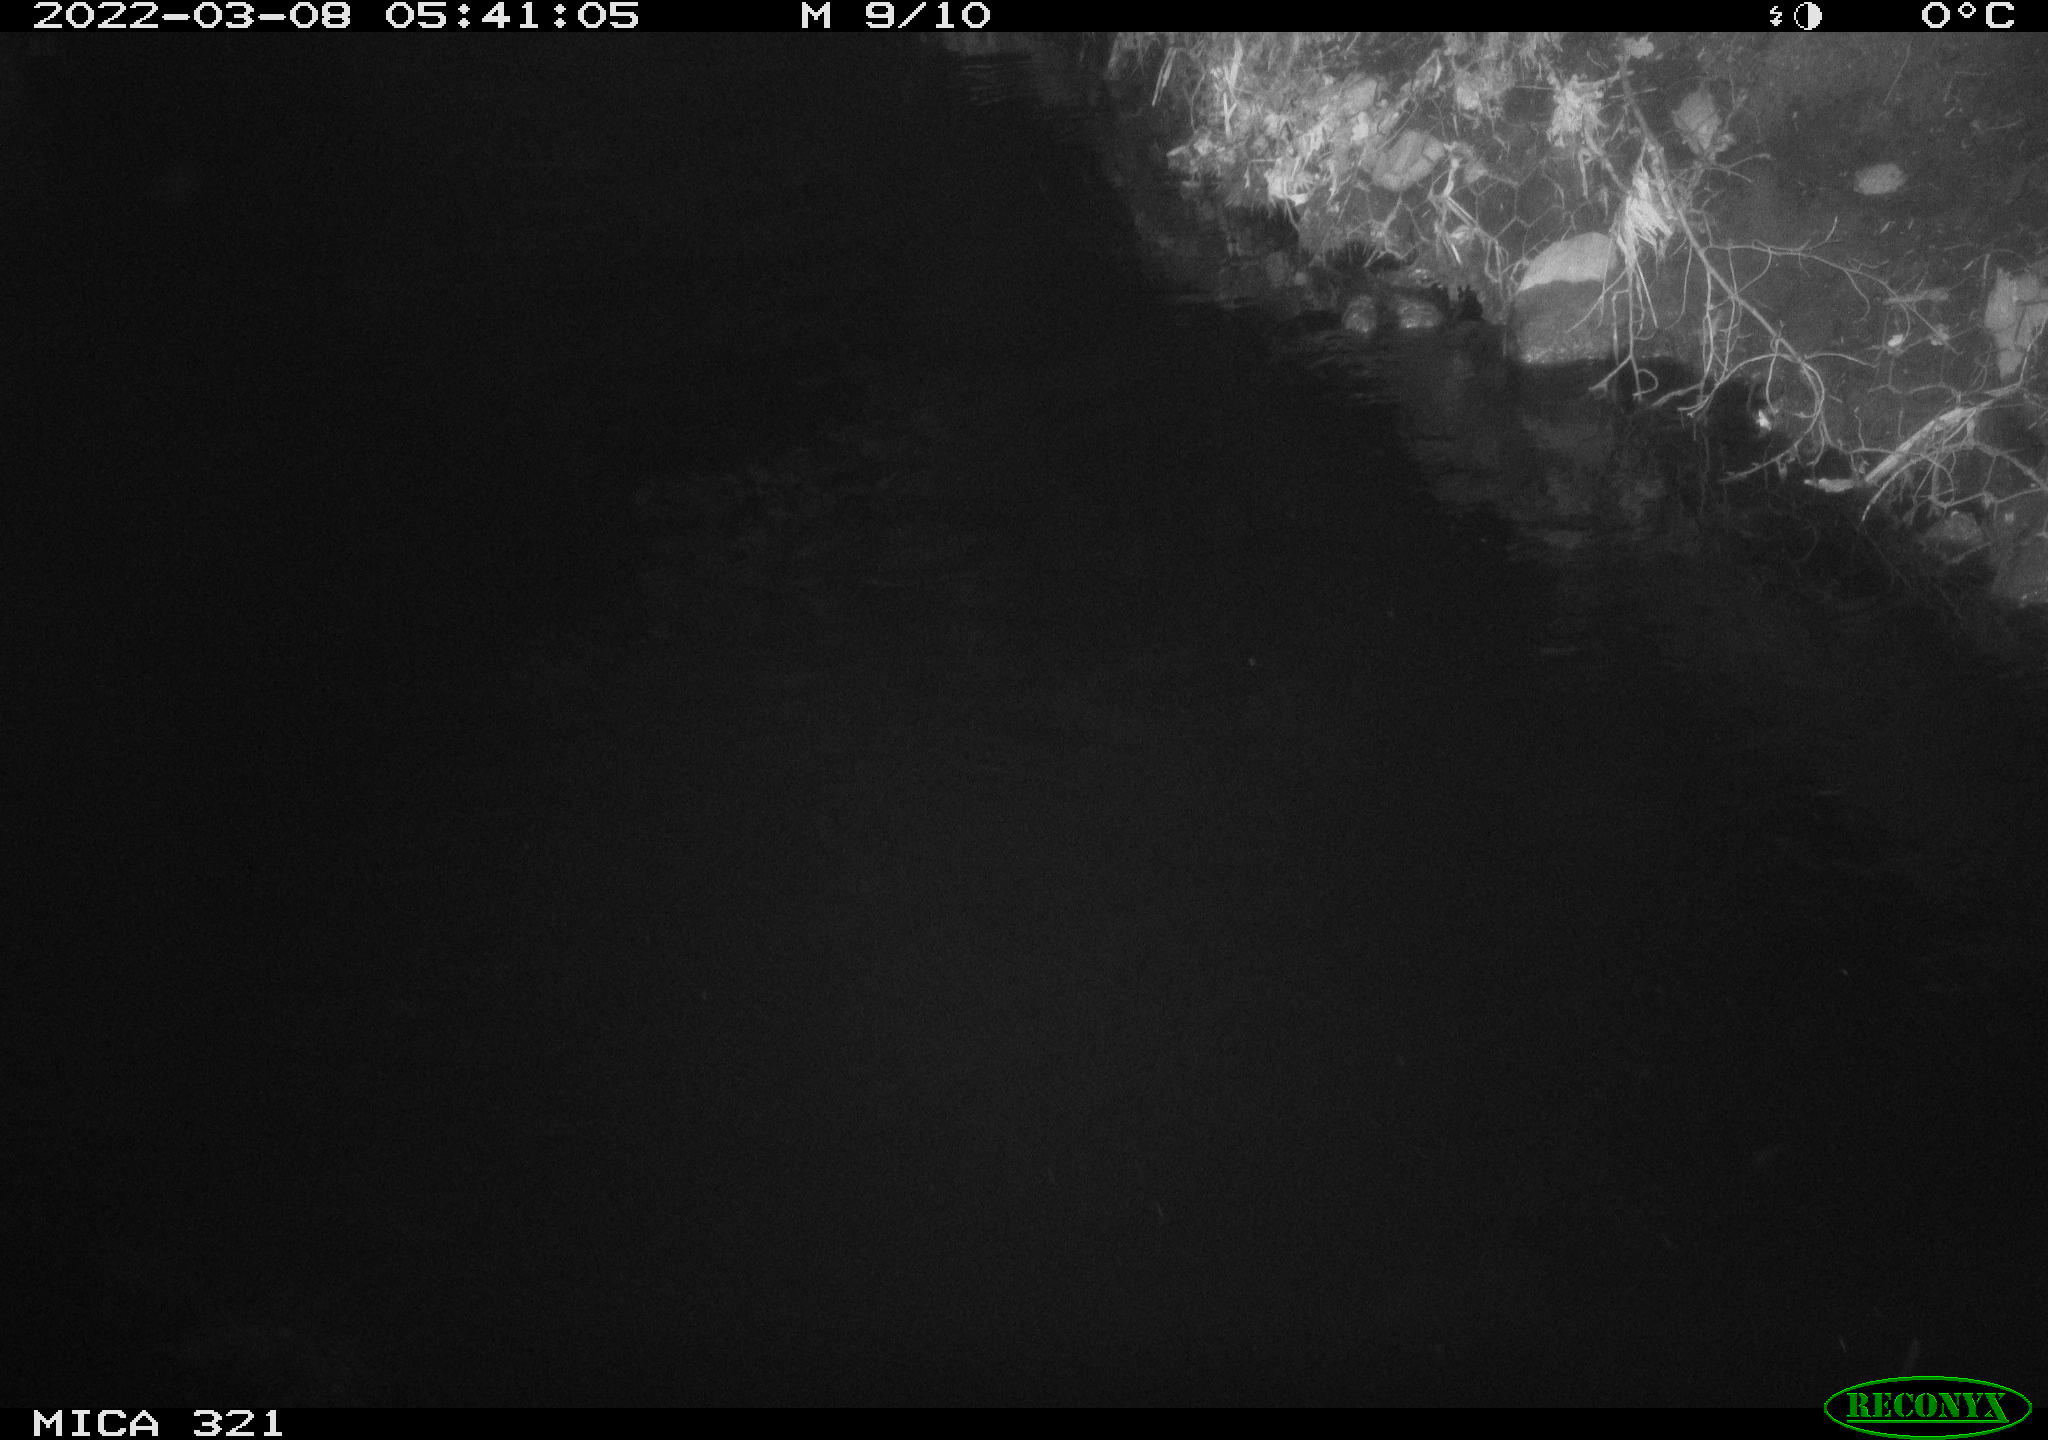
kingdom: Animalia
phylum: Chordata
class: Aves
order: Anseriformes
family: Anatidae
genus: Anas
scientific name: Anas platyrhynchos
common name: Mallard
